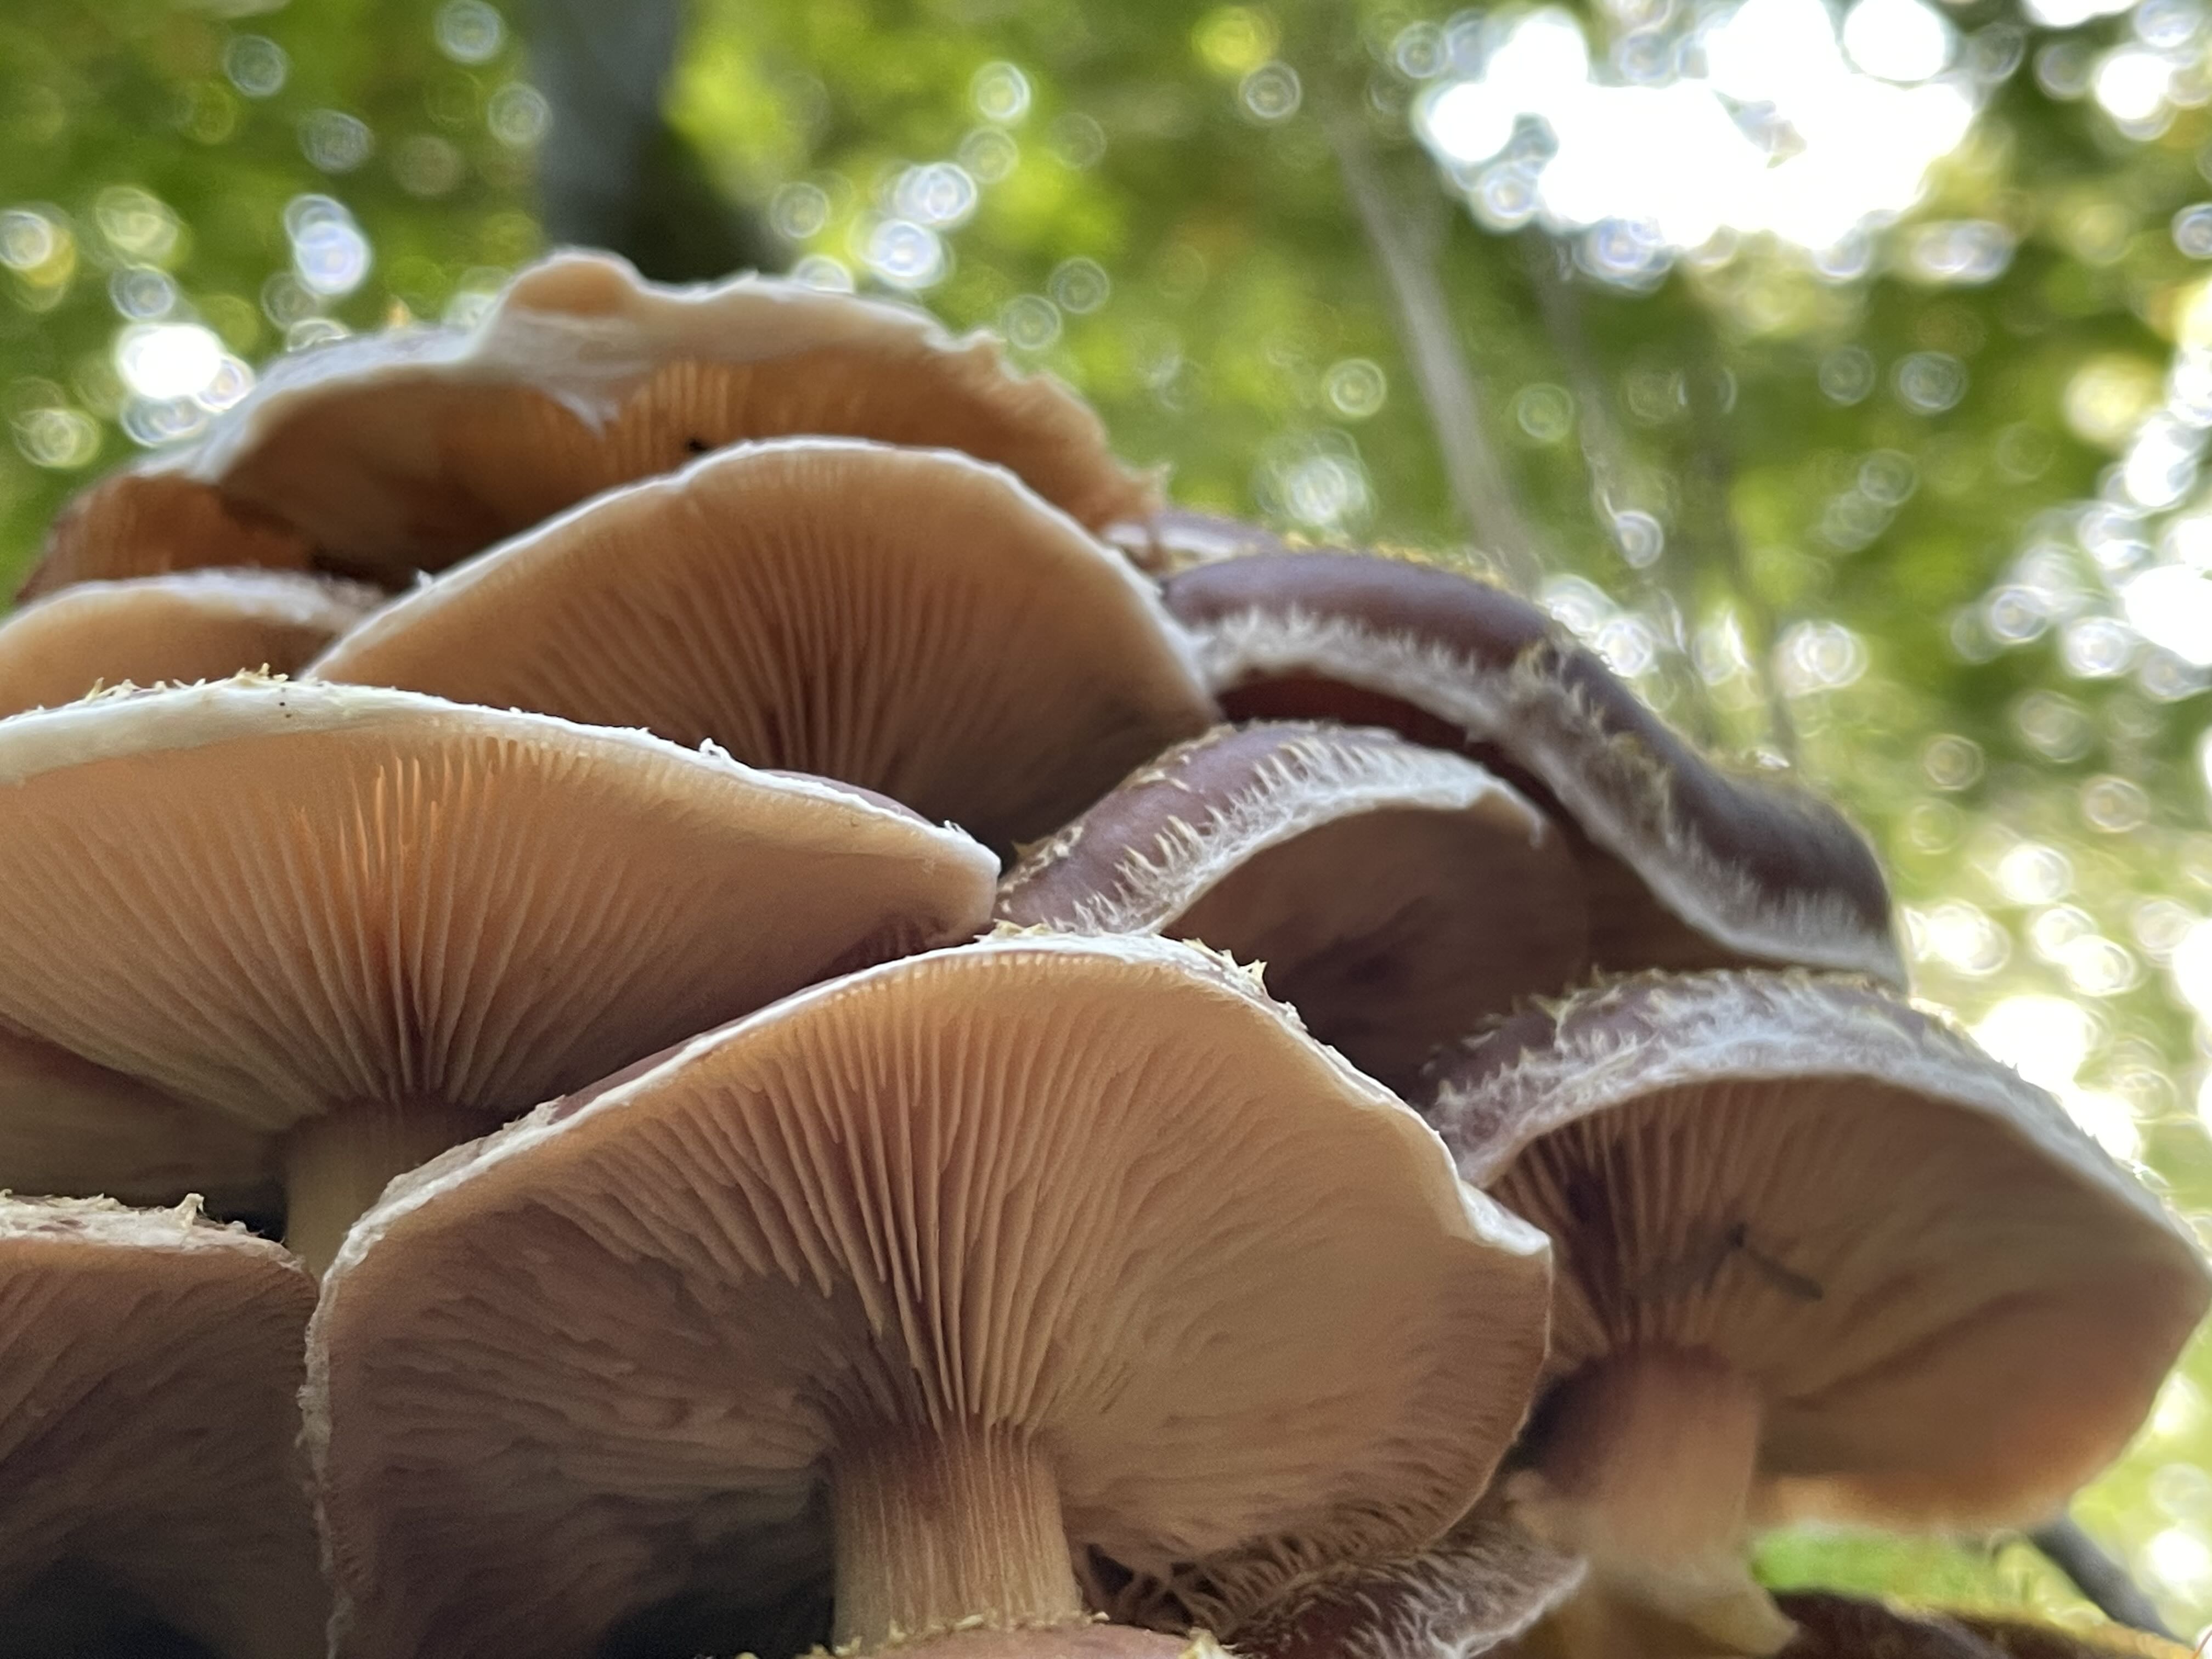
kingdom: Fungi
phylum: Basidiomycota
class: Agaricomycetes
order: Agaricales
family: Physalacriaceae
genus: Armillaria
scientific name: Armillaria
